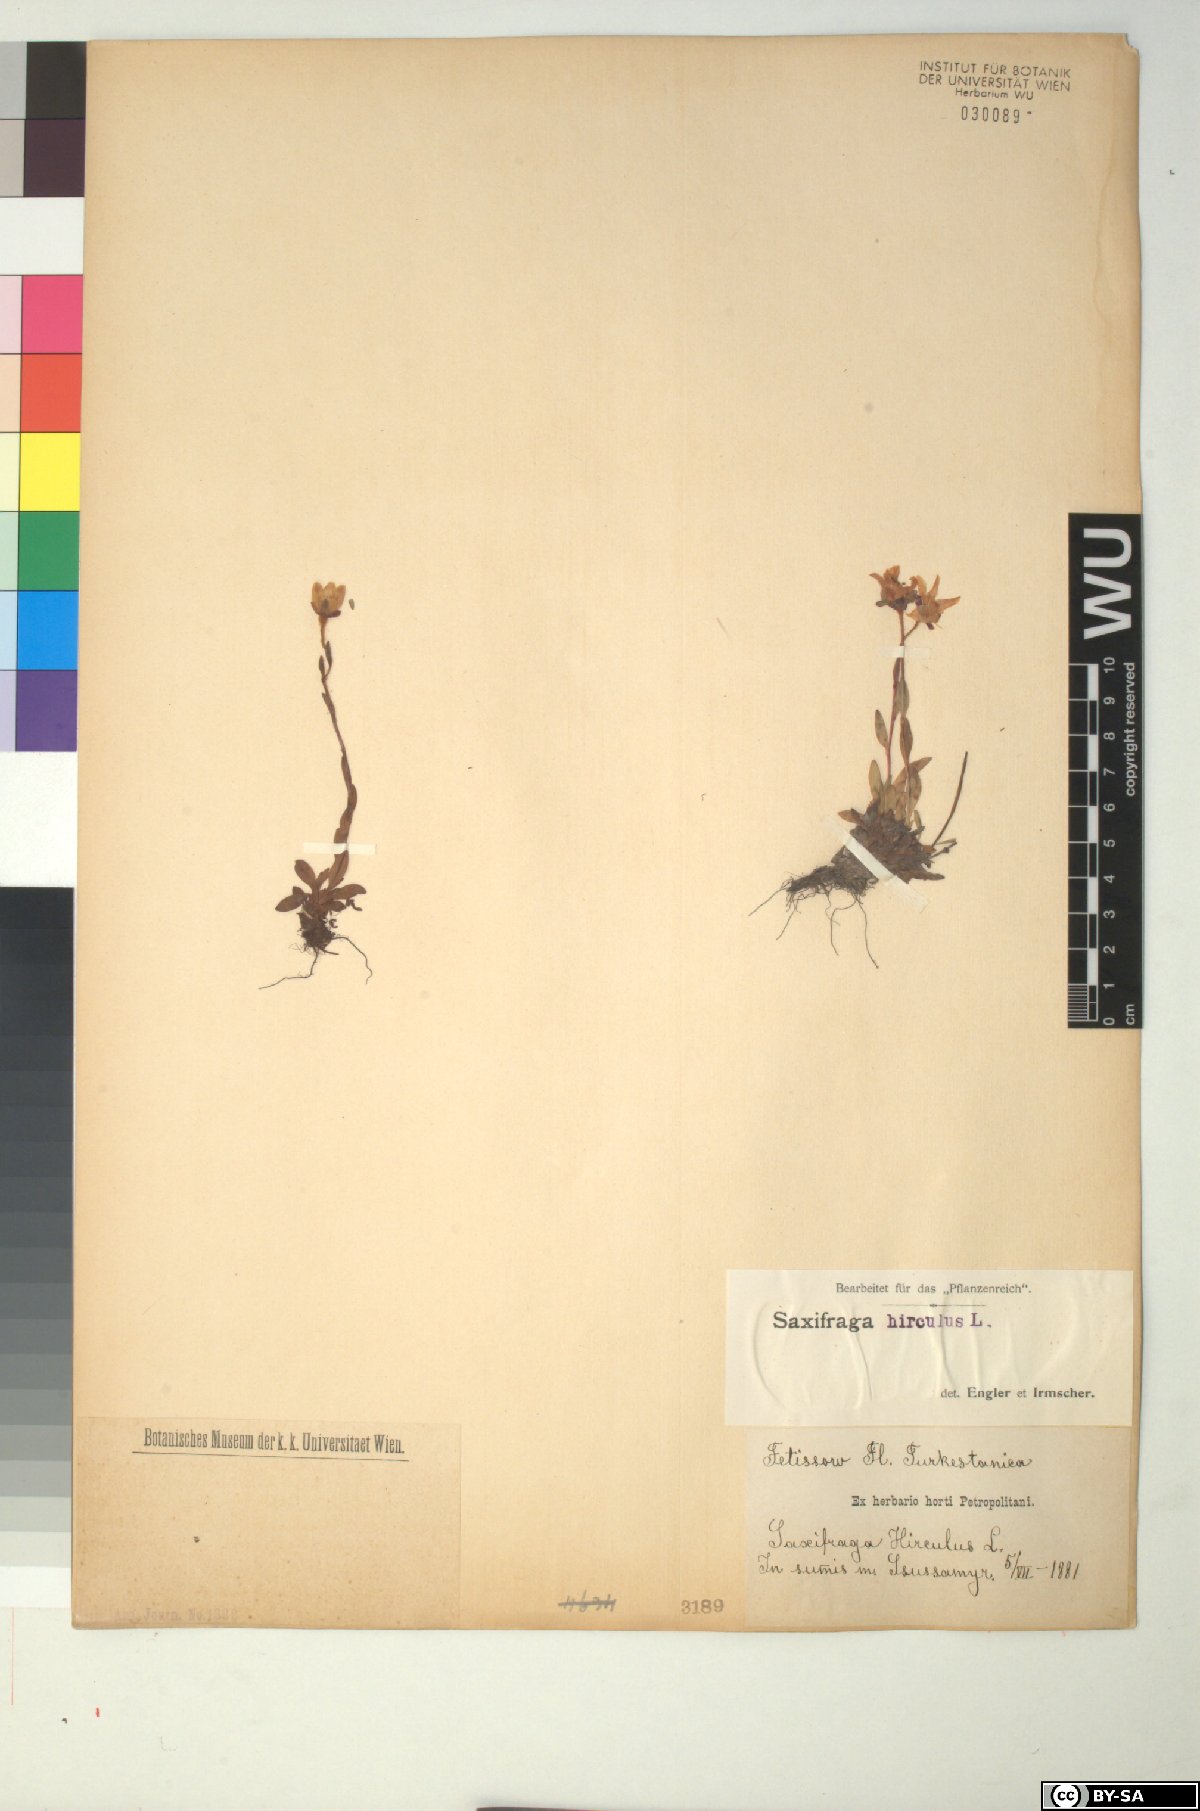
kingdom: Plantae
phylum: Tracheophyta
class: Magnoliopsida
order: Saxifragales
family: Saxifragaceae
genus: Saxifraga
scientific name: Saxifraga hirculus
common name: Yellow marsh saxifrage
